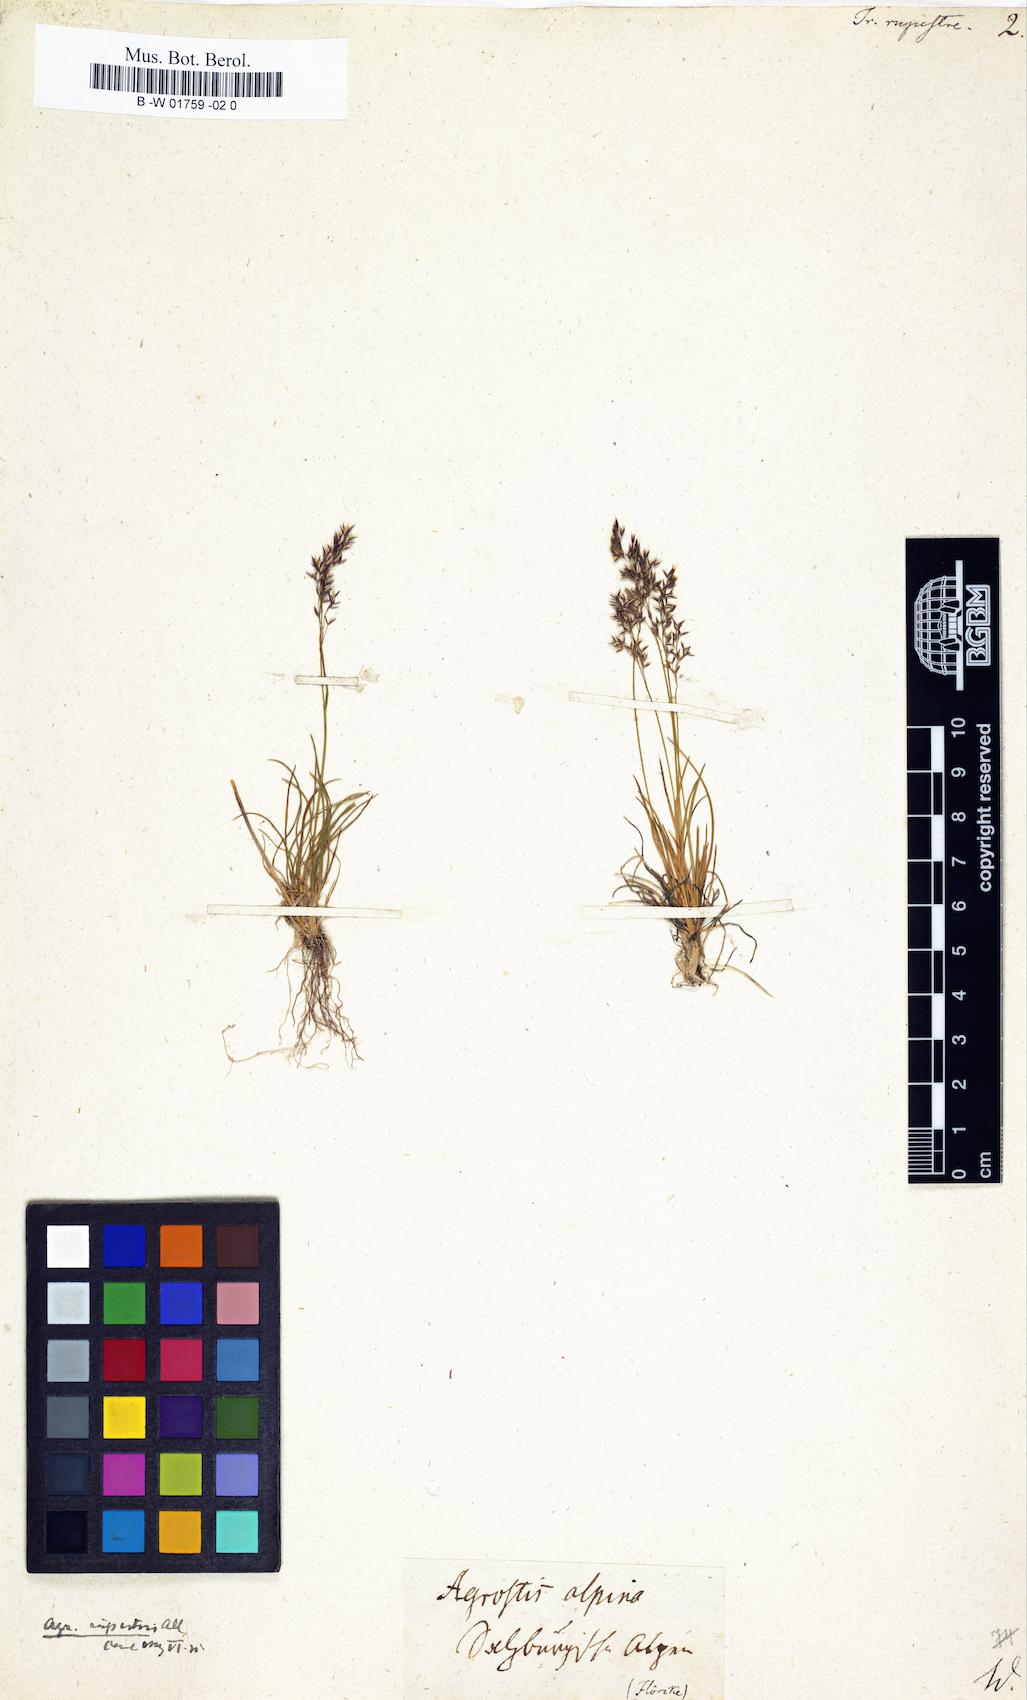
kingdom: Plantae
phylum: Tracheophyta
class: Liliopsida
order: Poales
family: Poaceae
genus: Alpagrostis
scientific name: Alpagrostis alpina
